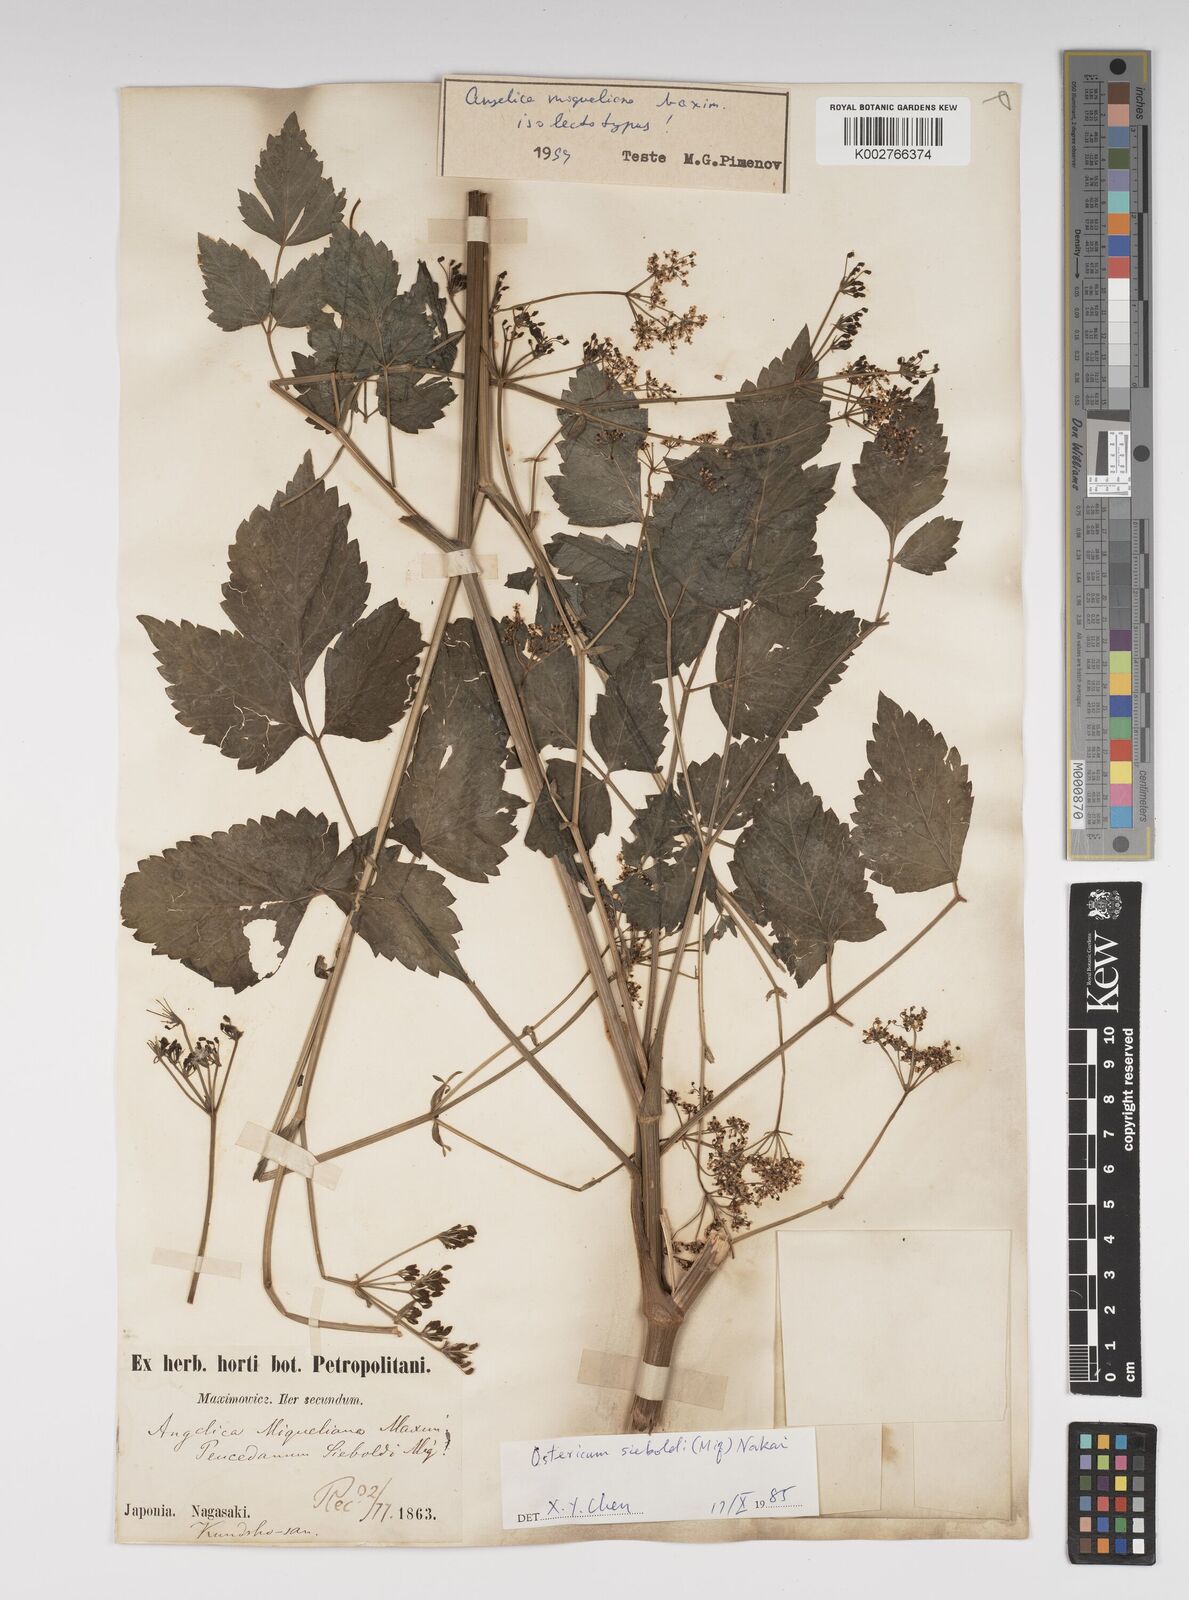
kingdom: Plantae
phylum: Tracheophyta
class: Magnoliopsida
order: Apiales
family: Apiaceae
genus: Ostericum
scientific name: Ostericum sieboldii
